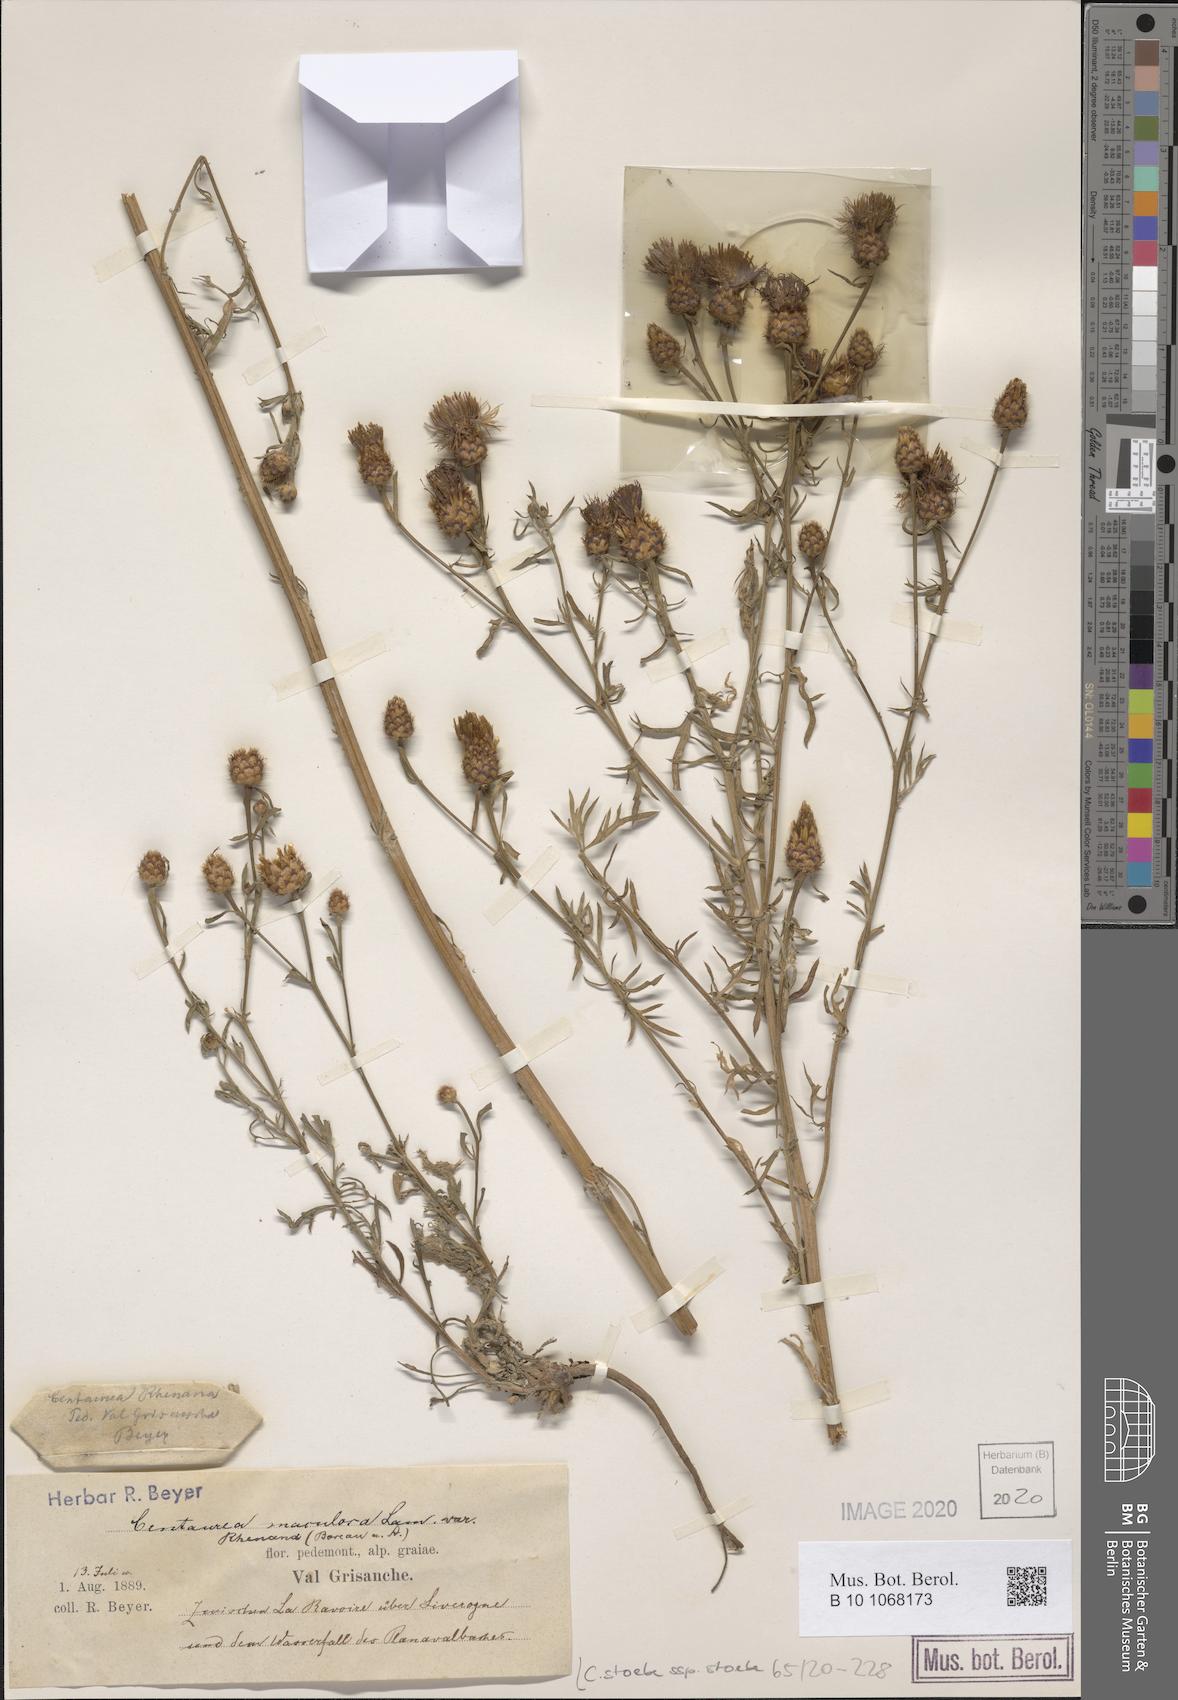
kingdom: Plantae
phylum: Tracheophyta
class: Magnoliopsida
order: Asterales
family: Asteraceae
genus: Centaurea
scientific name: Centaurea stoebe
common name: Spotted knapweed
